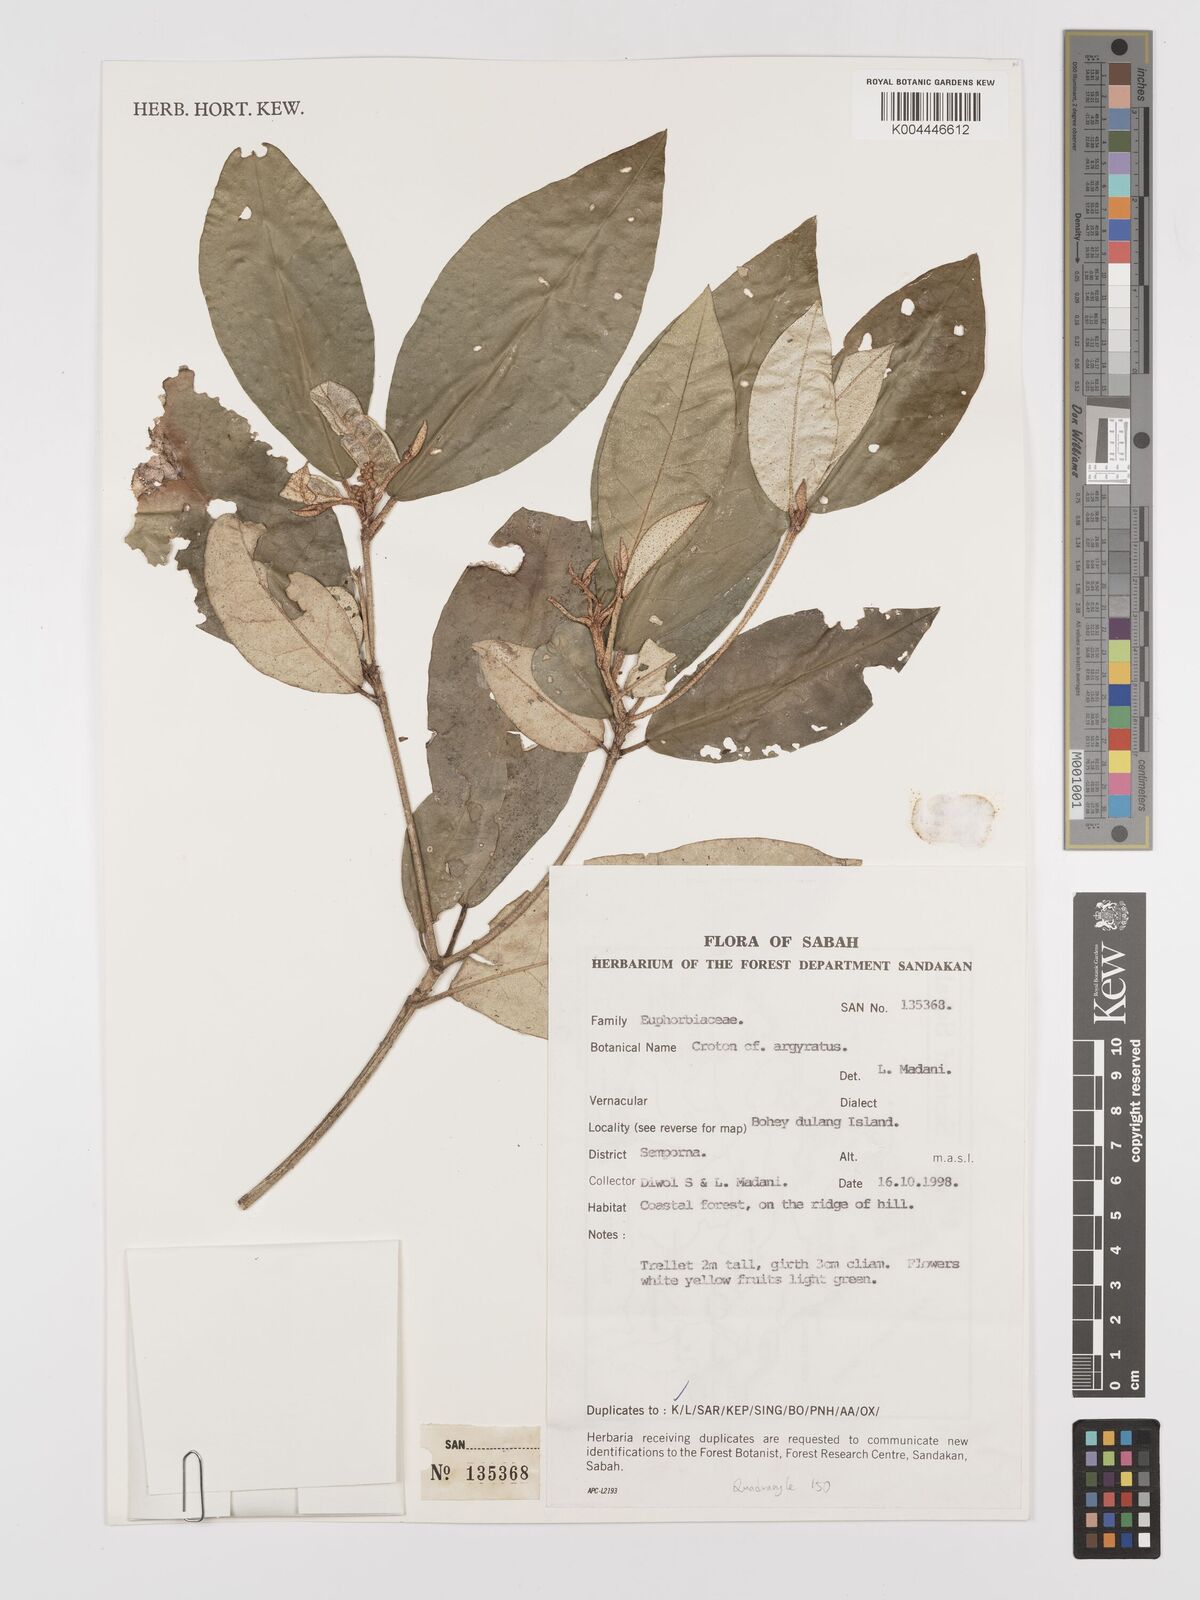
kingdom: Plantae
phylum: Tracheophyta
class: Magnoliopsida
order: Malpighiales
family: Euphorbiaceae
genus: Croton
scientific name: Croton argyratus
